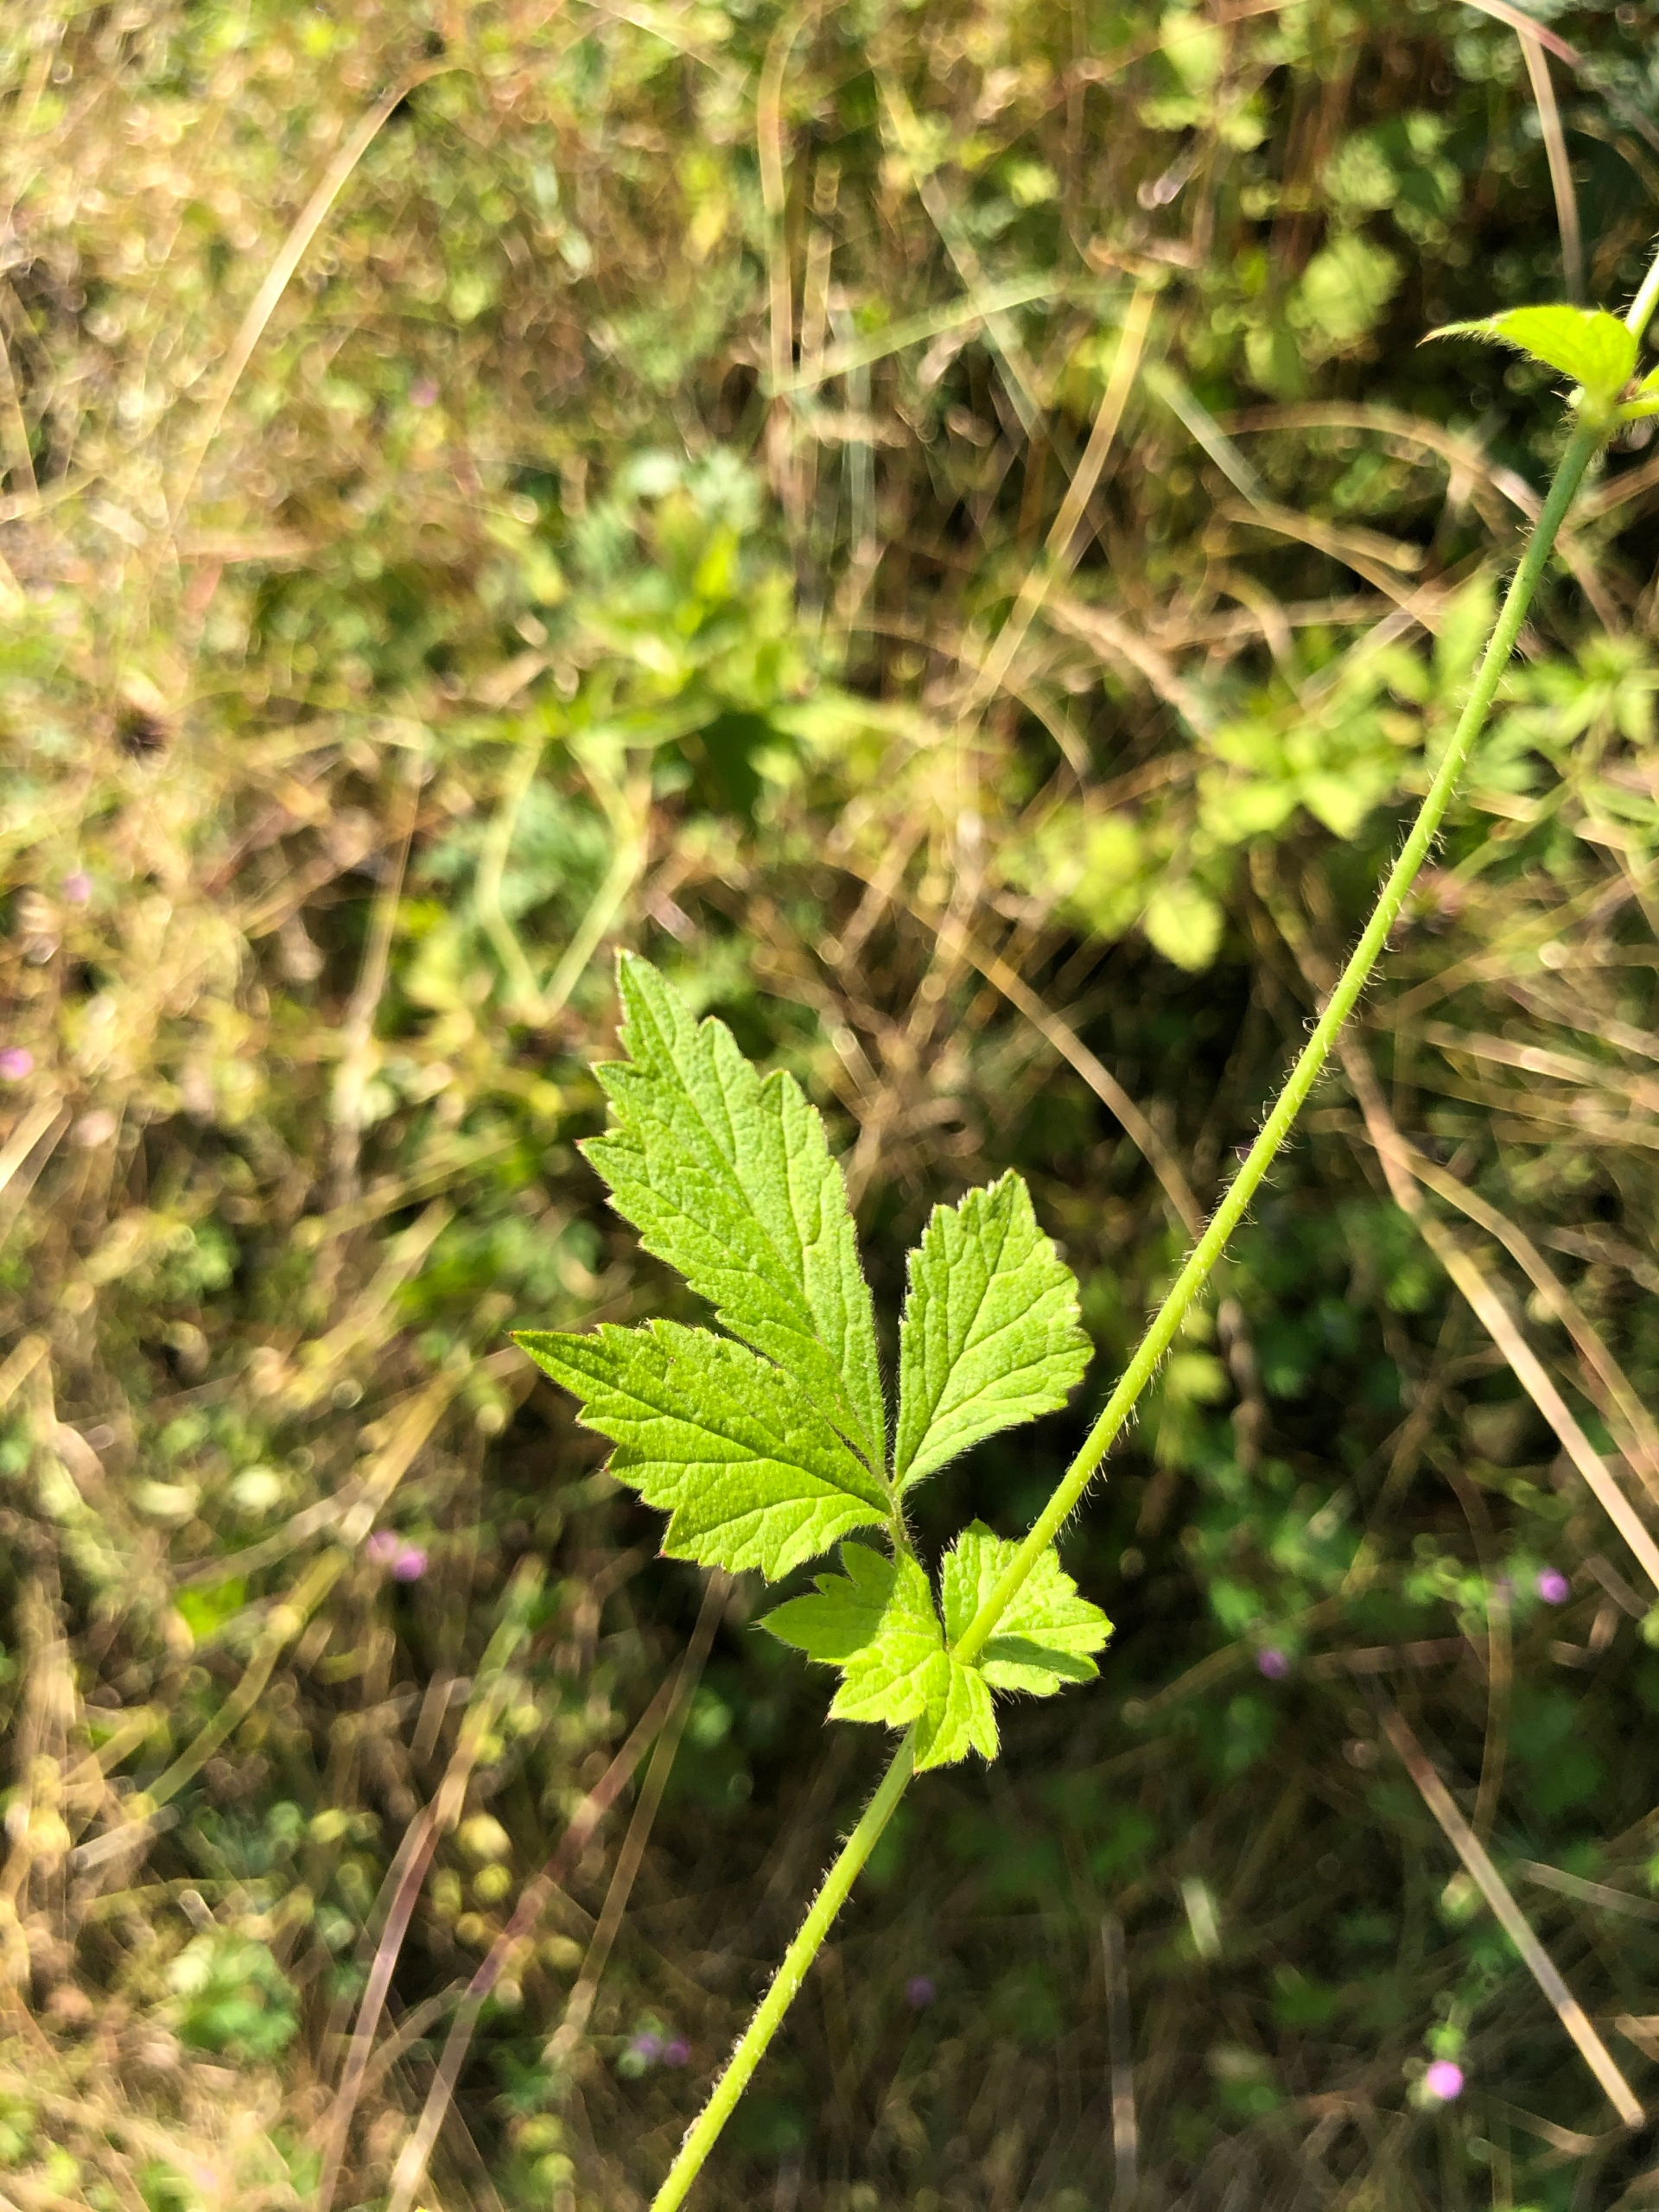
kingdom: Plantae
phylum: Tracheophyta
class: Magnoliopsida
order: Rosales
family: Rosaceae
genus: Geum
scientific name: Geum urbanum
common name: Feber-nellikerod
